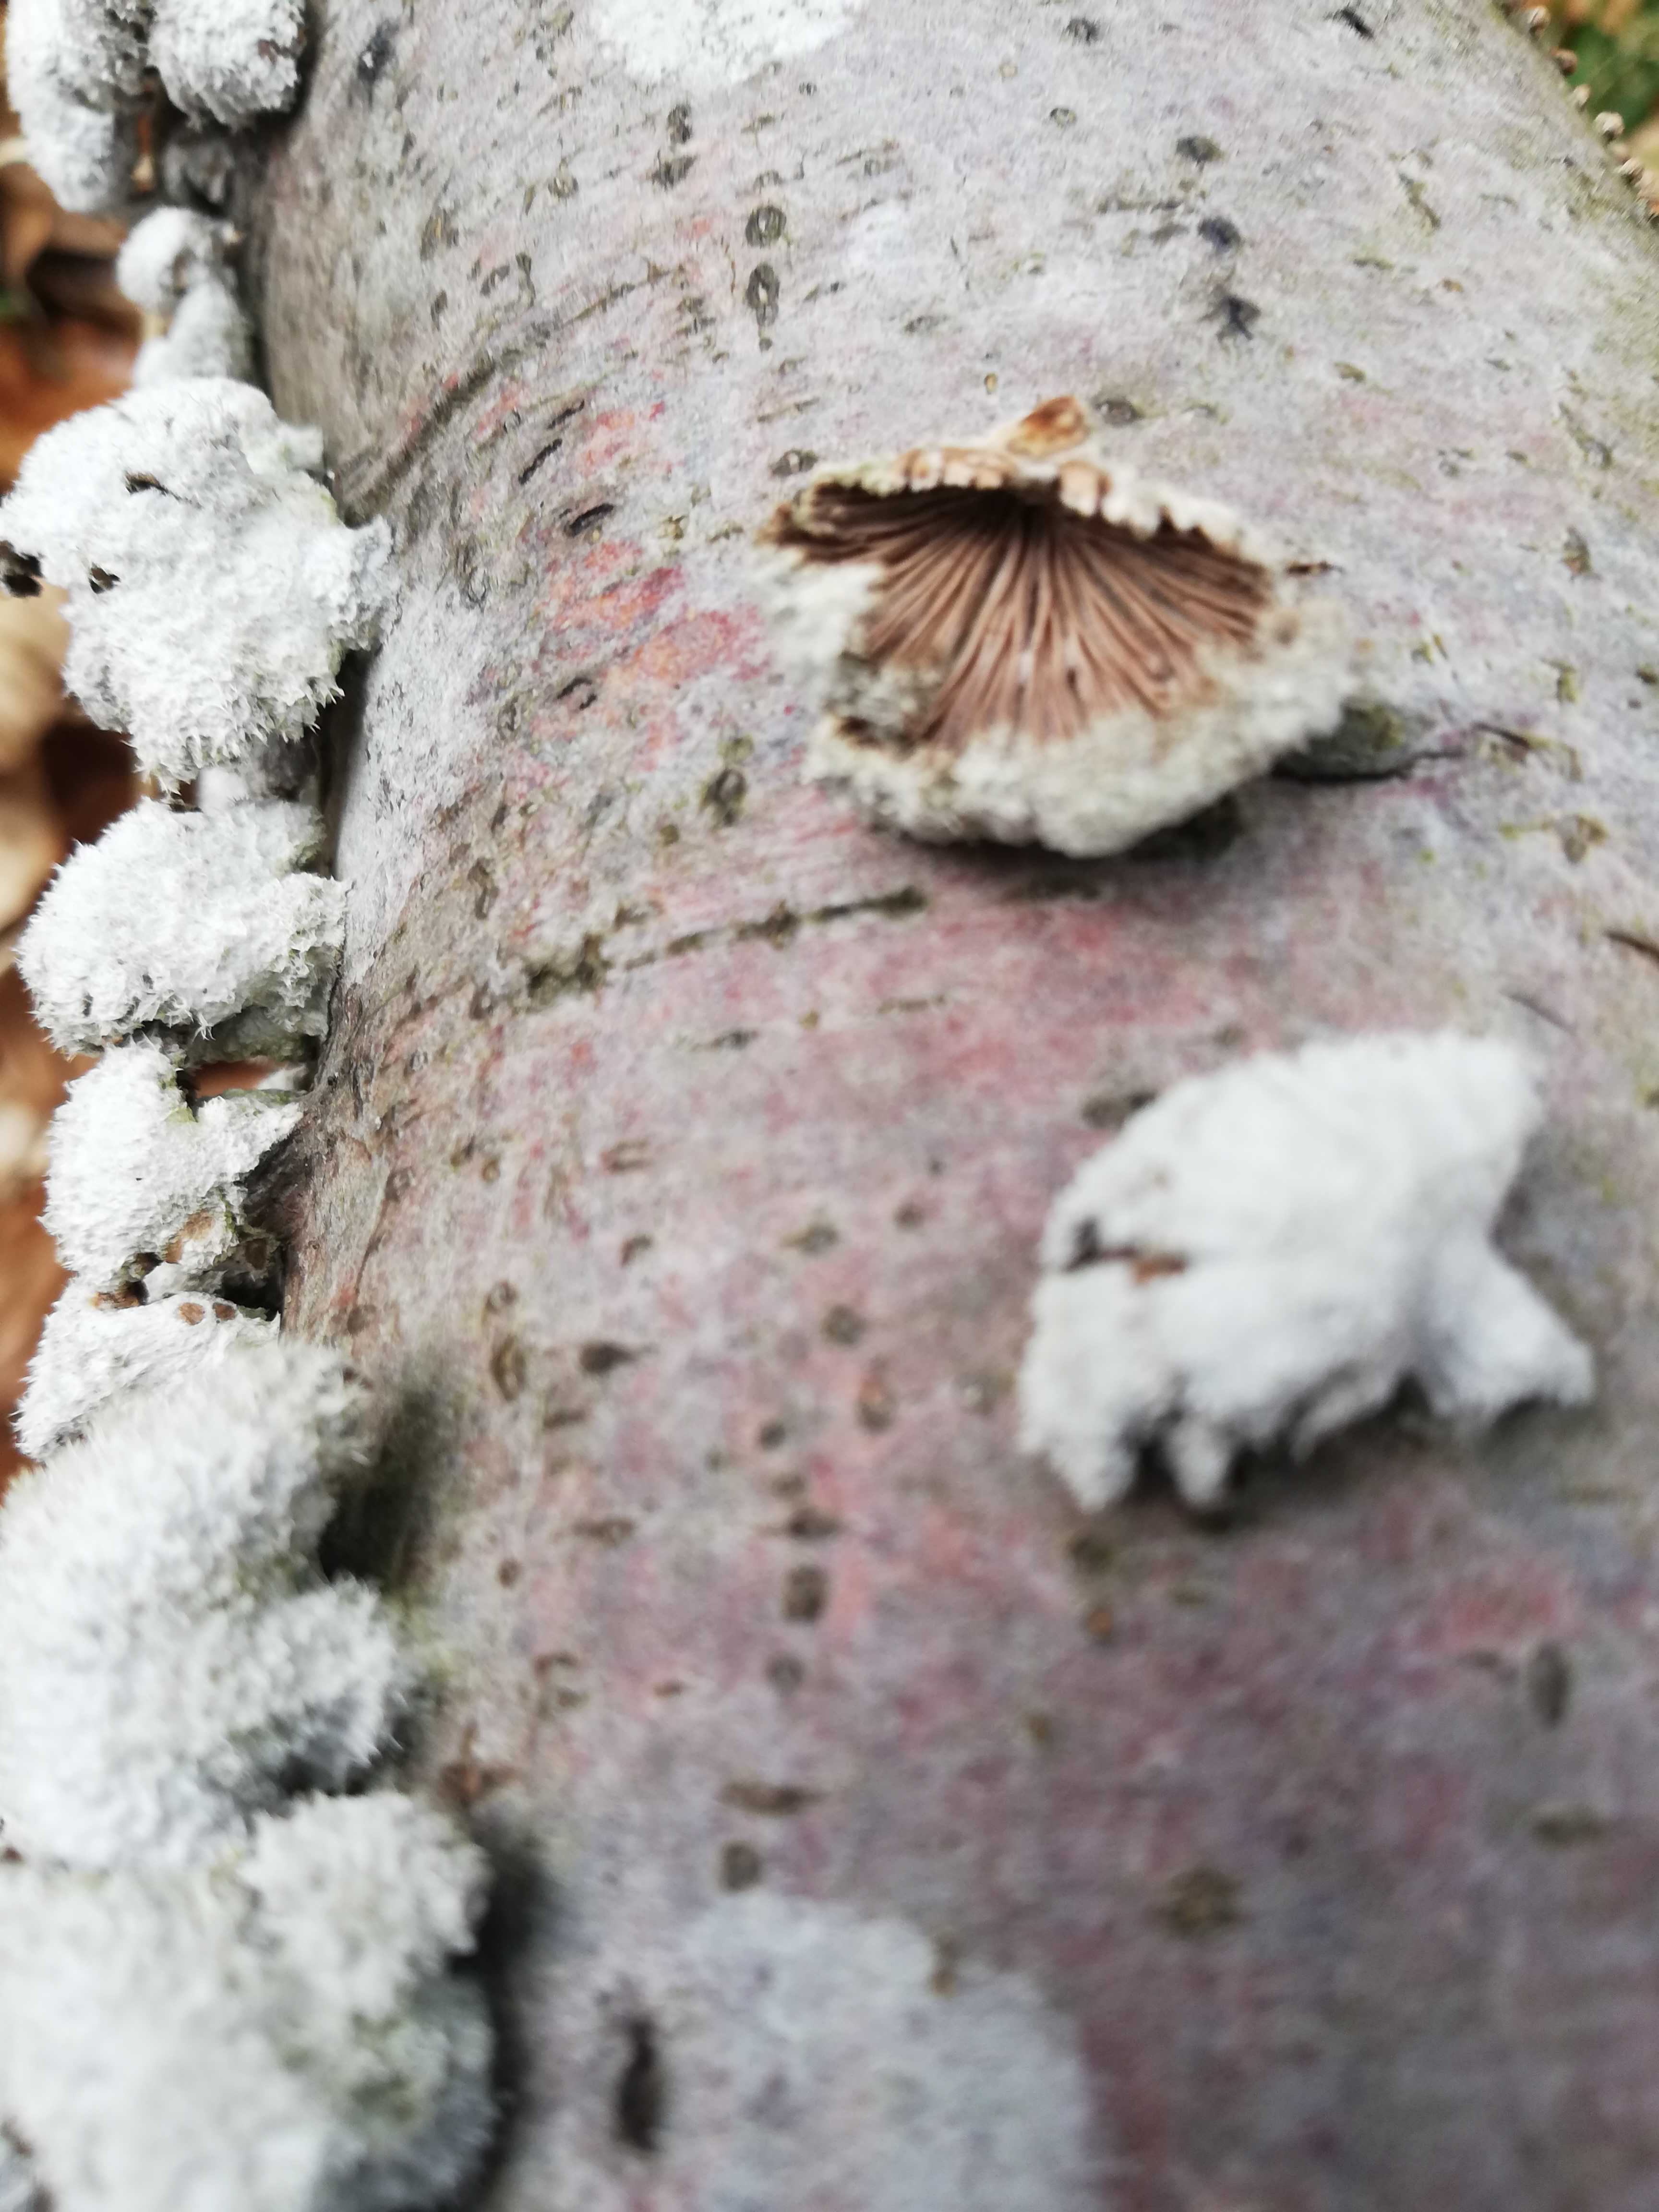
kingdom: Fungi
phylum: Basidiomycota
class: Agaricomycetes
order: Agaricales
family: Schizophyllaceae
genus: Schizophyllum
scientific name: Schizophyllum commune
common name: kløvblad
